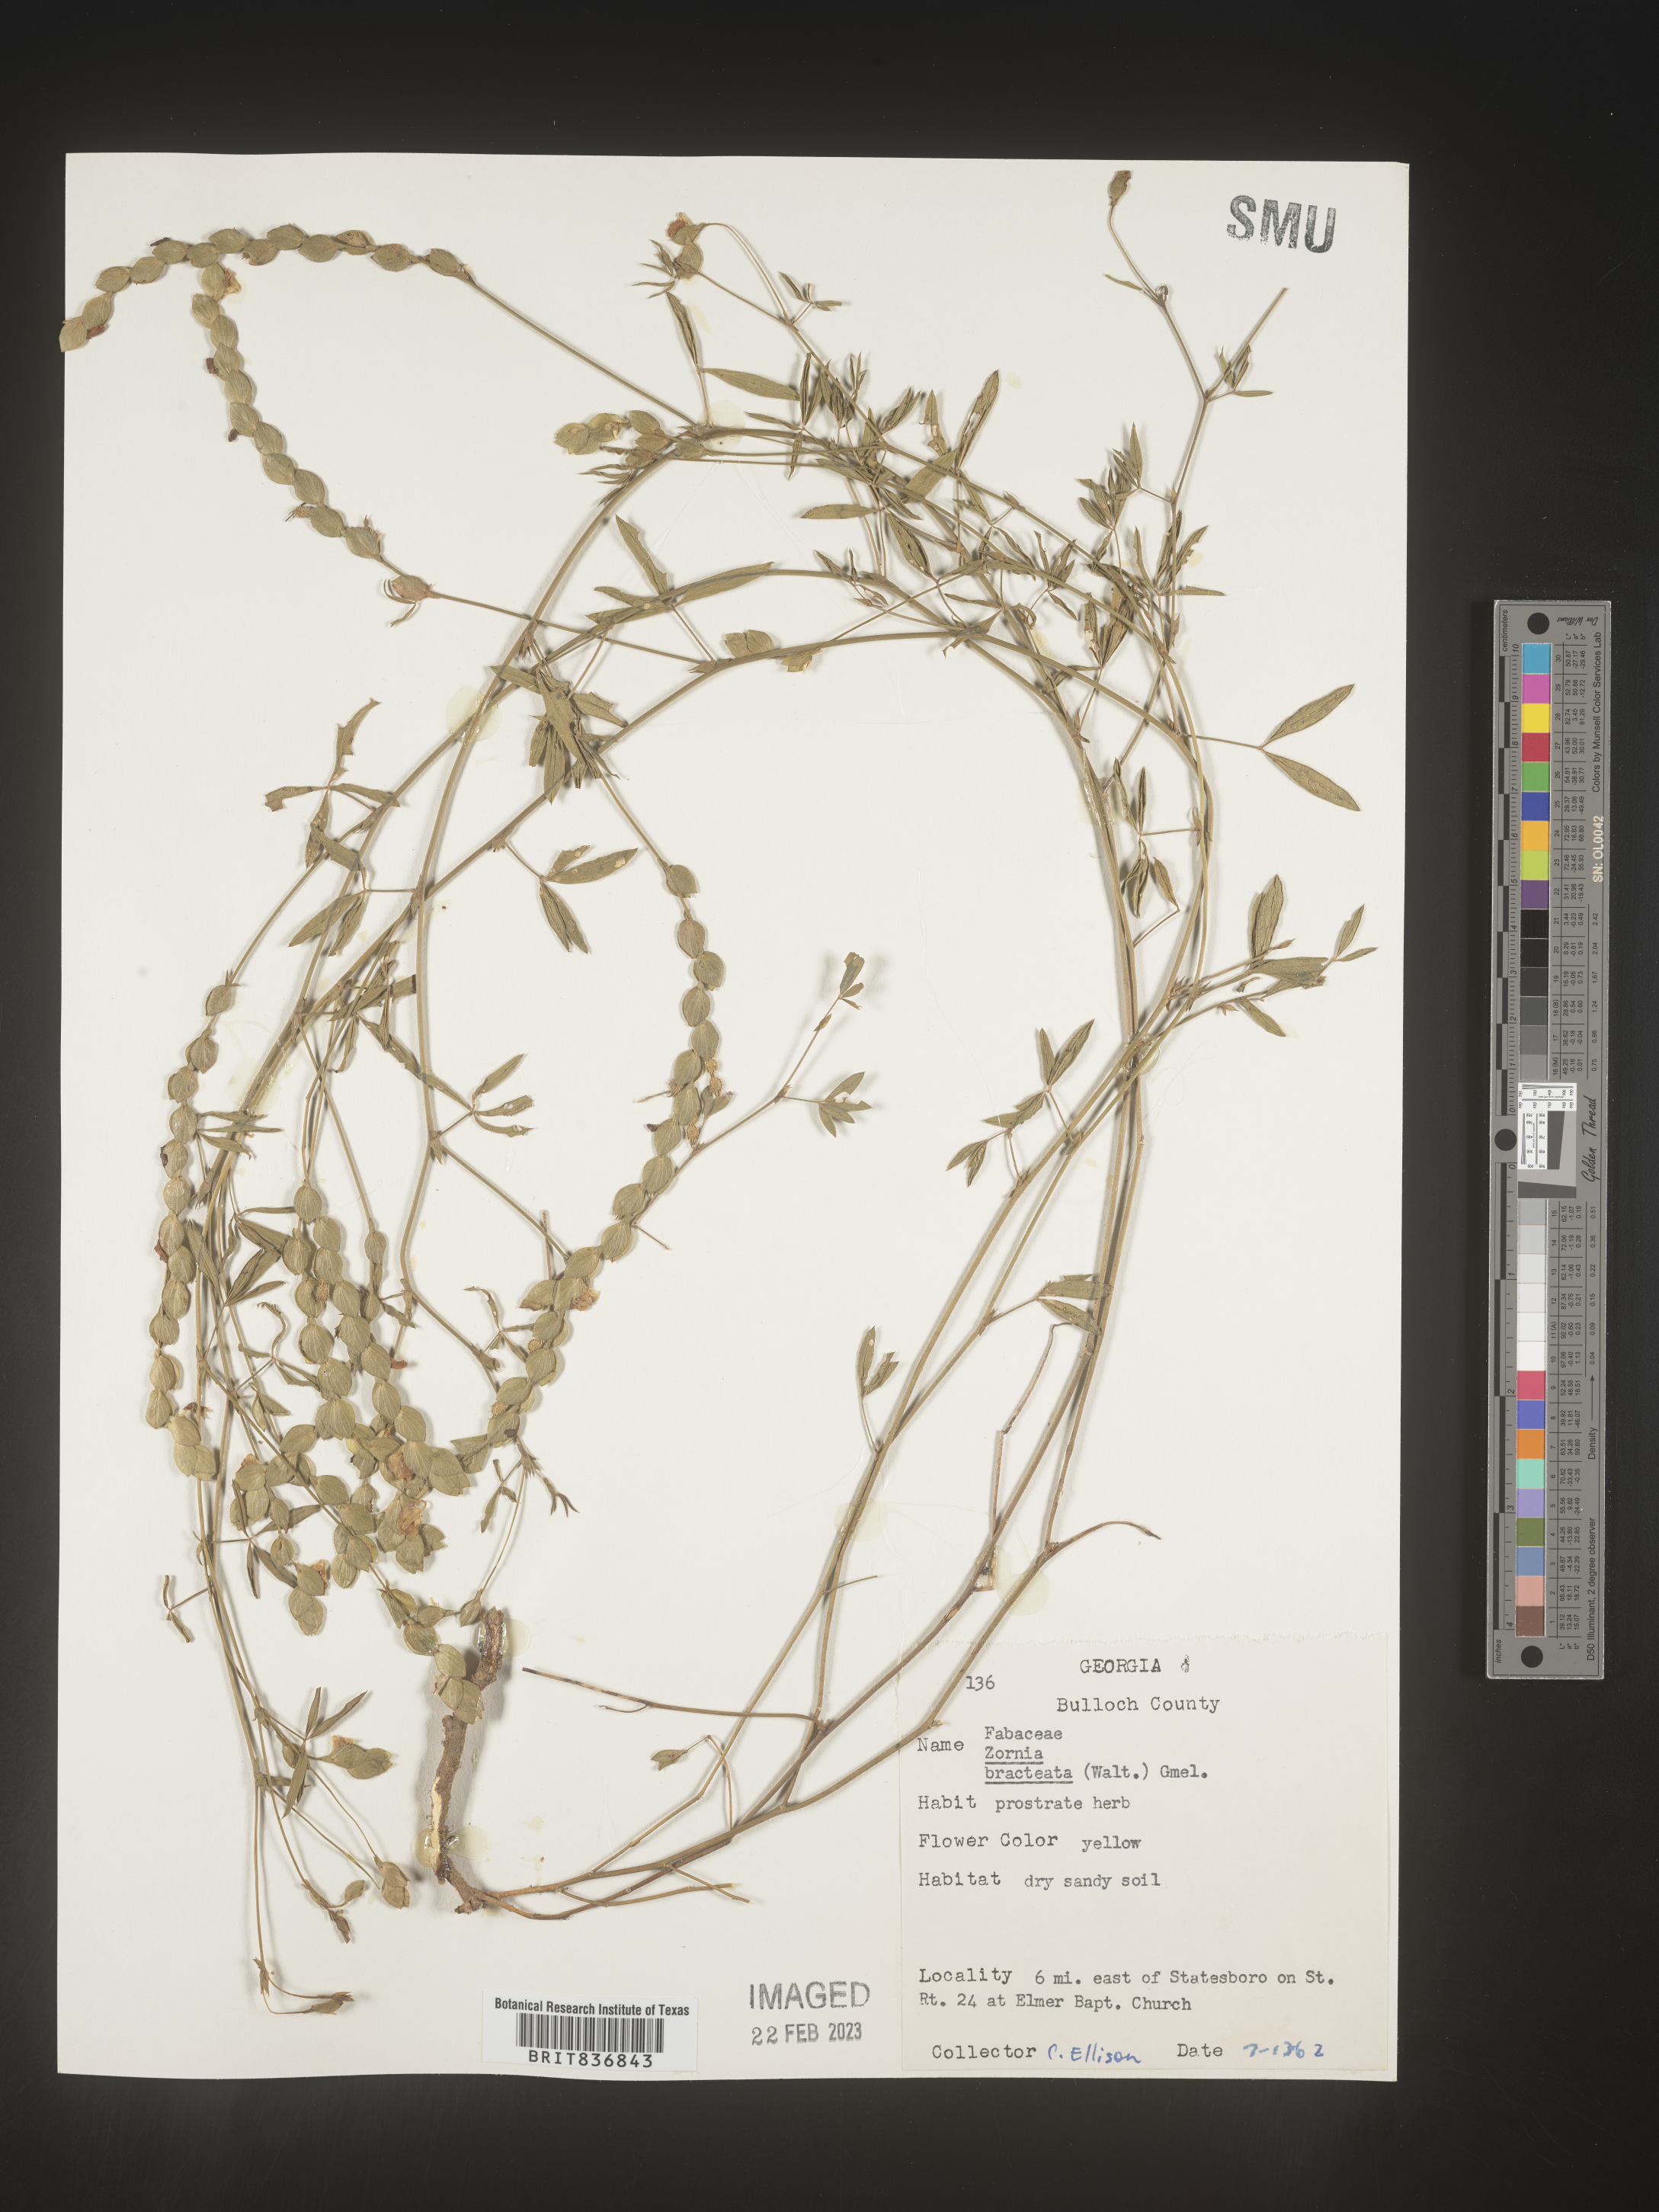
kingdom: Plantae
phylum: Tracheophyta
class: Magnoliopsida
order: Fabales
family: Fabaceae
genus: Zornia
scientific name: Zornia
